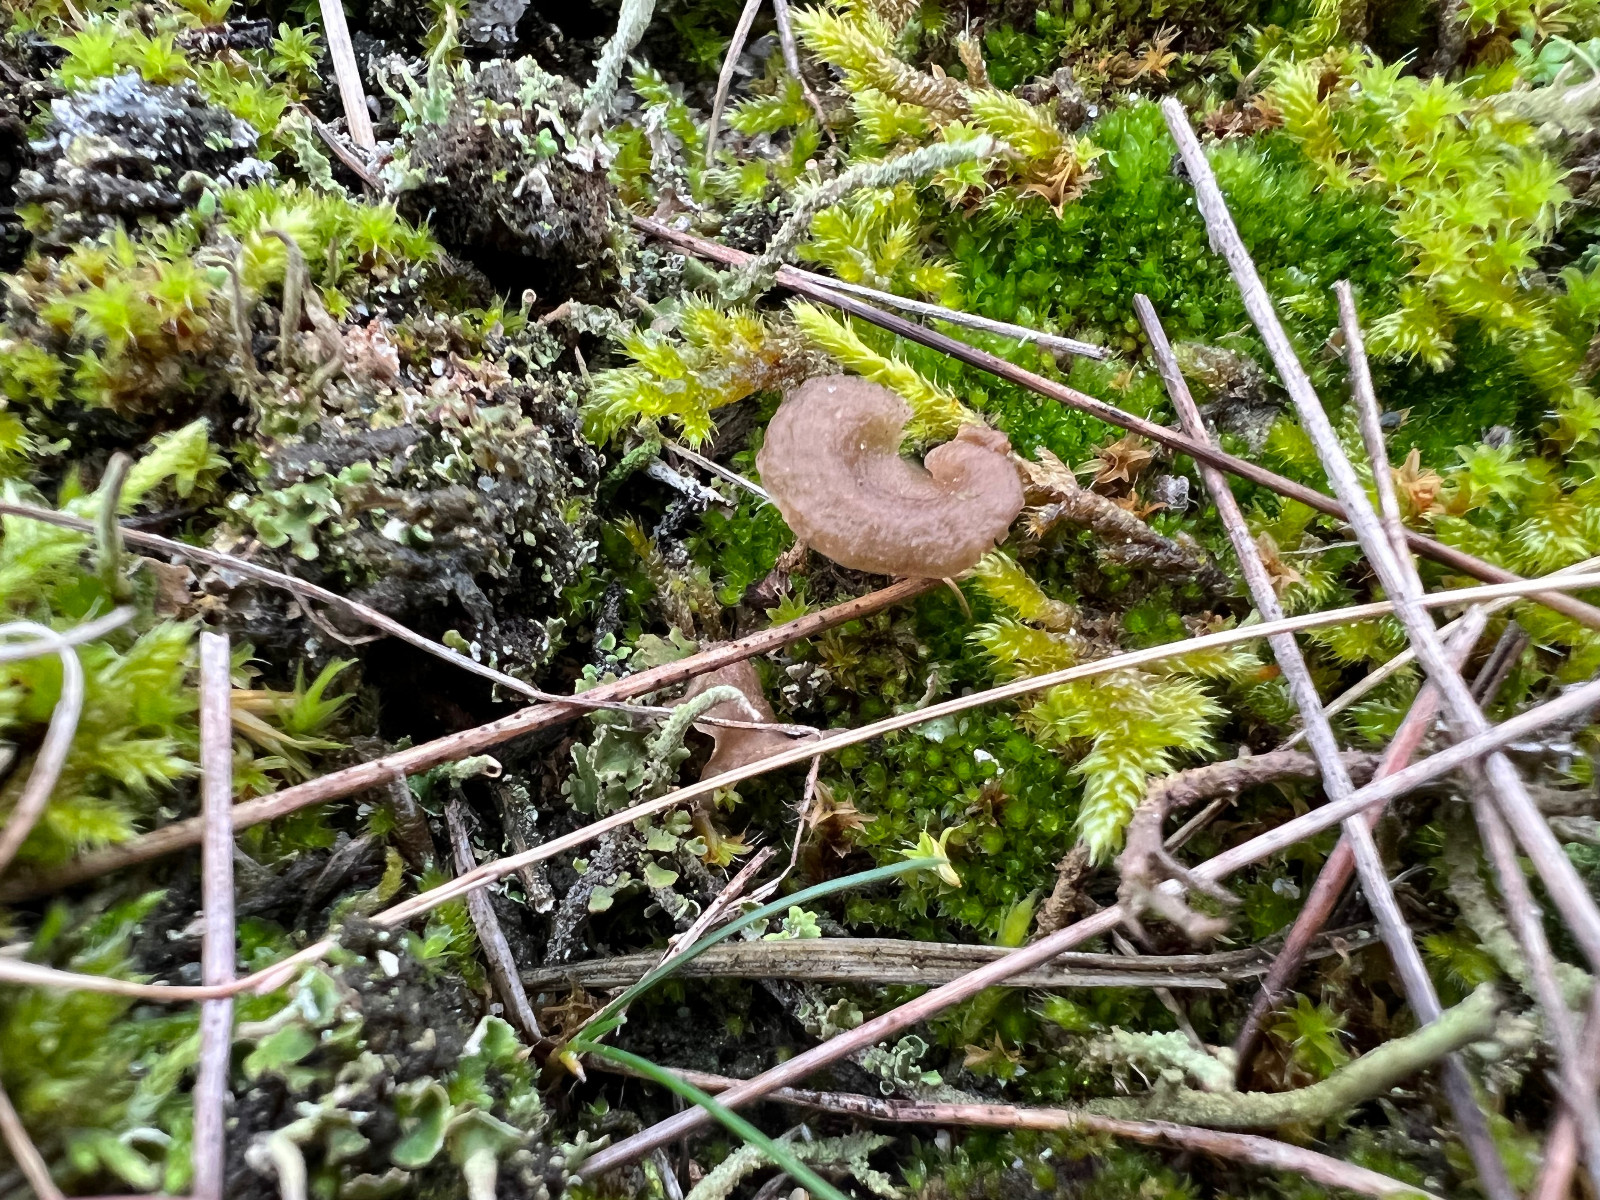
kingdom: Fungi
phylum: Basidiomycota
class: Agaricomycetes
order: Agaricales
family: Hygrophoraceae
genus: Arrhenia
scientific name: Arrhenia spathulata
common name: skæv fontænehat
